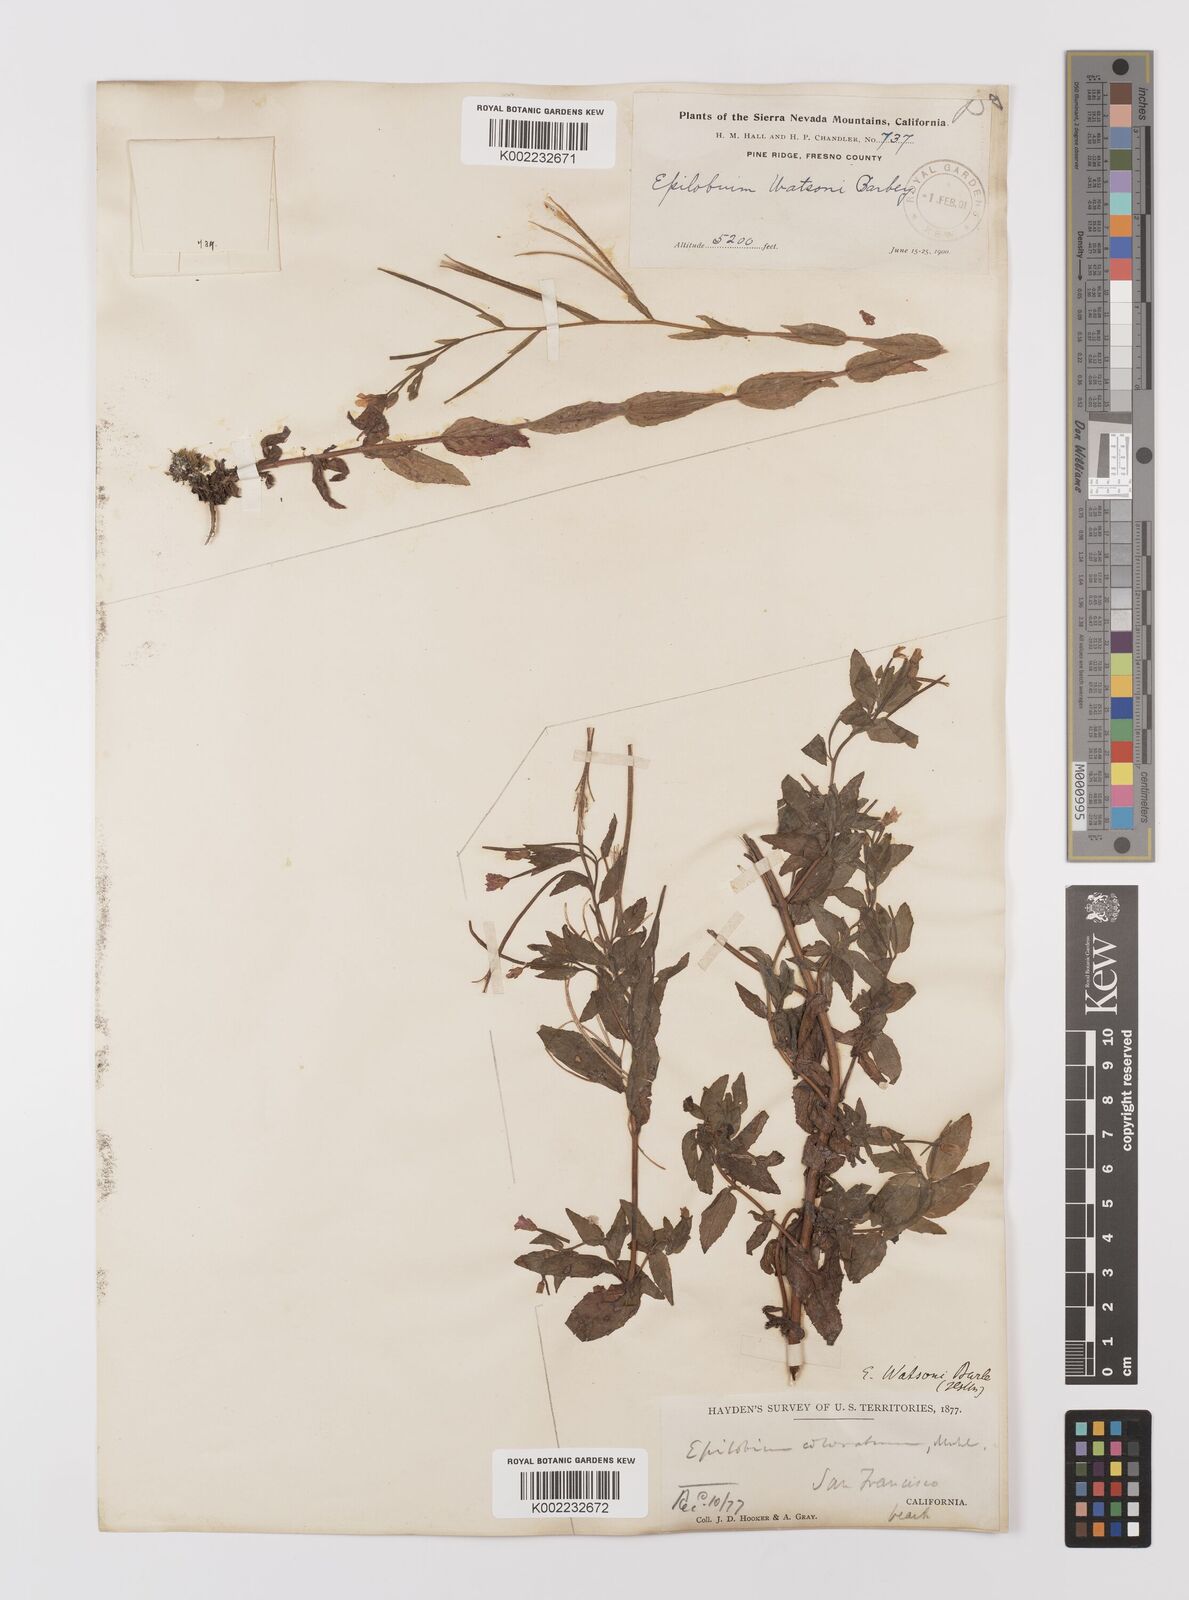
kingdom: Plantae
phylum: Tracheophyta
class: Magnoliopsida
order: Myrtales
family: Onagraceae
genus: Epilobium
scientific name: Epilobium ciliatum
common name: American willowherb
